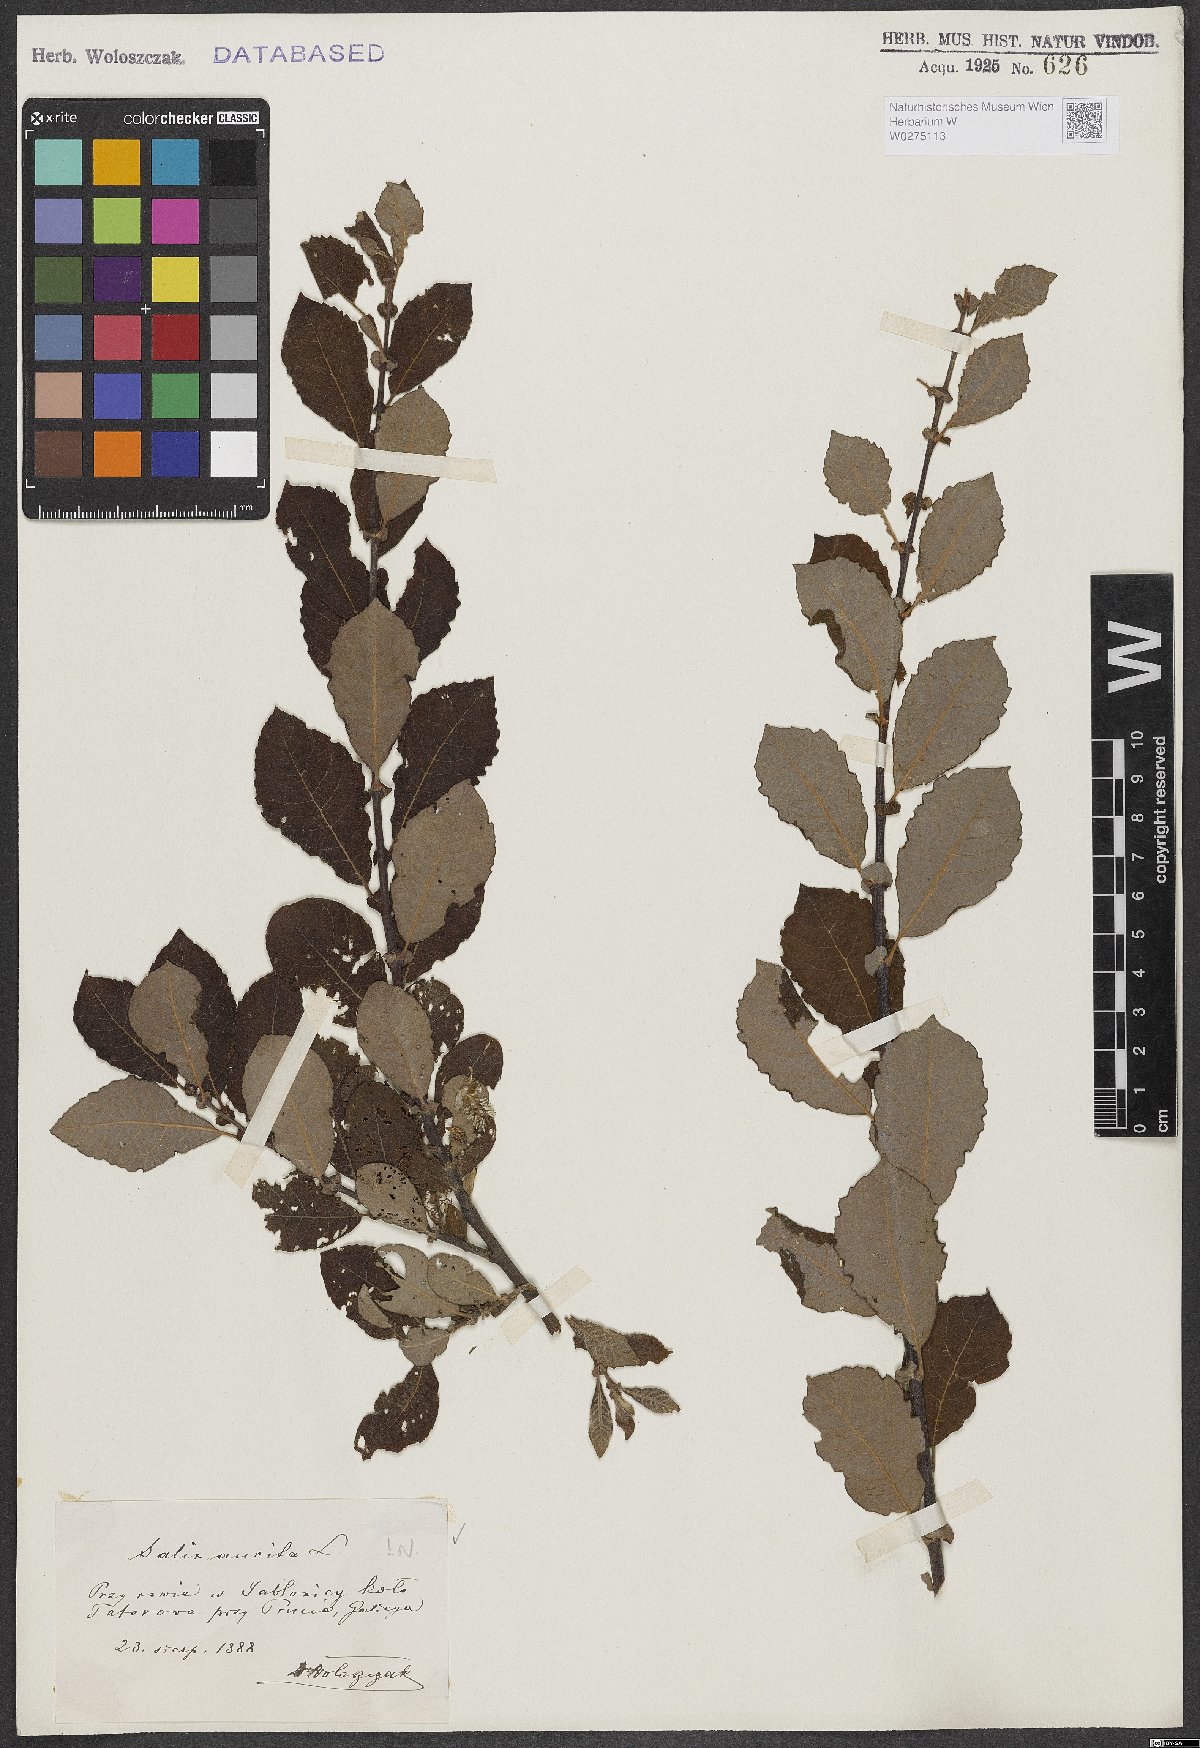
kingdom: Plantae
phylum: Tracheophyta
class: Magnoliopsida
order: Malpighiales
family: Salicaceae
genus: Salix
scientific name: Salix aurita
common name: Eared willow
